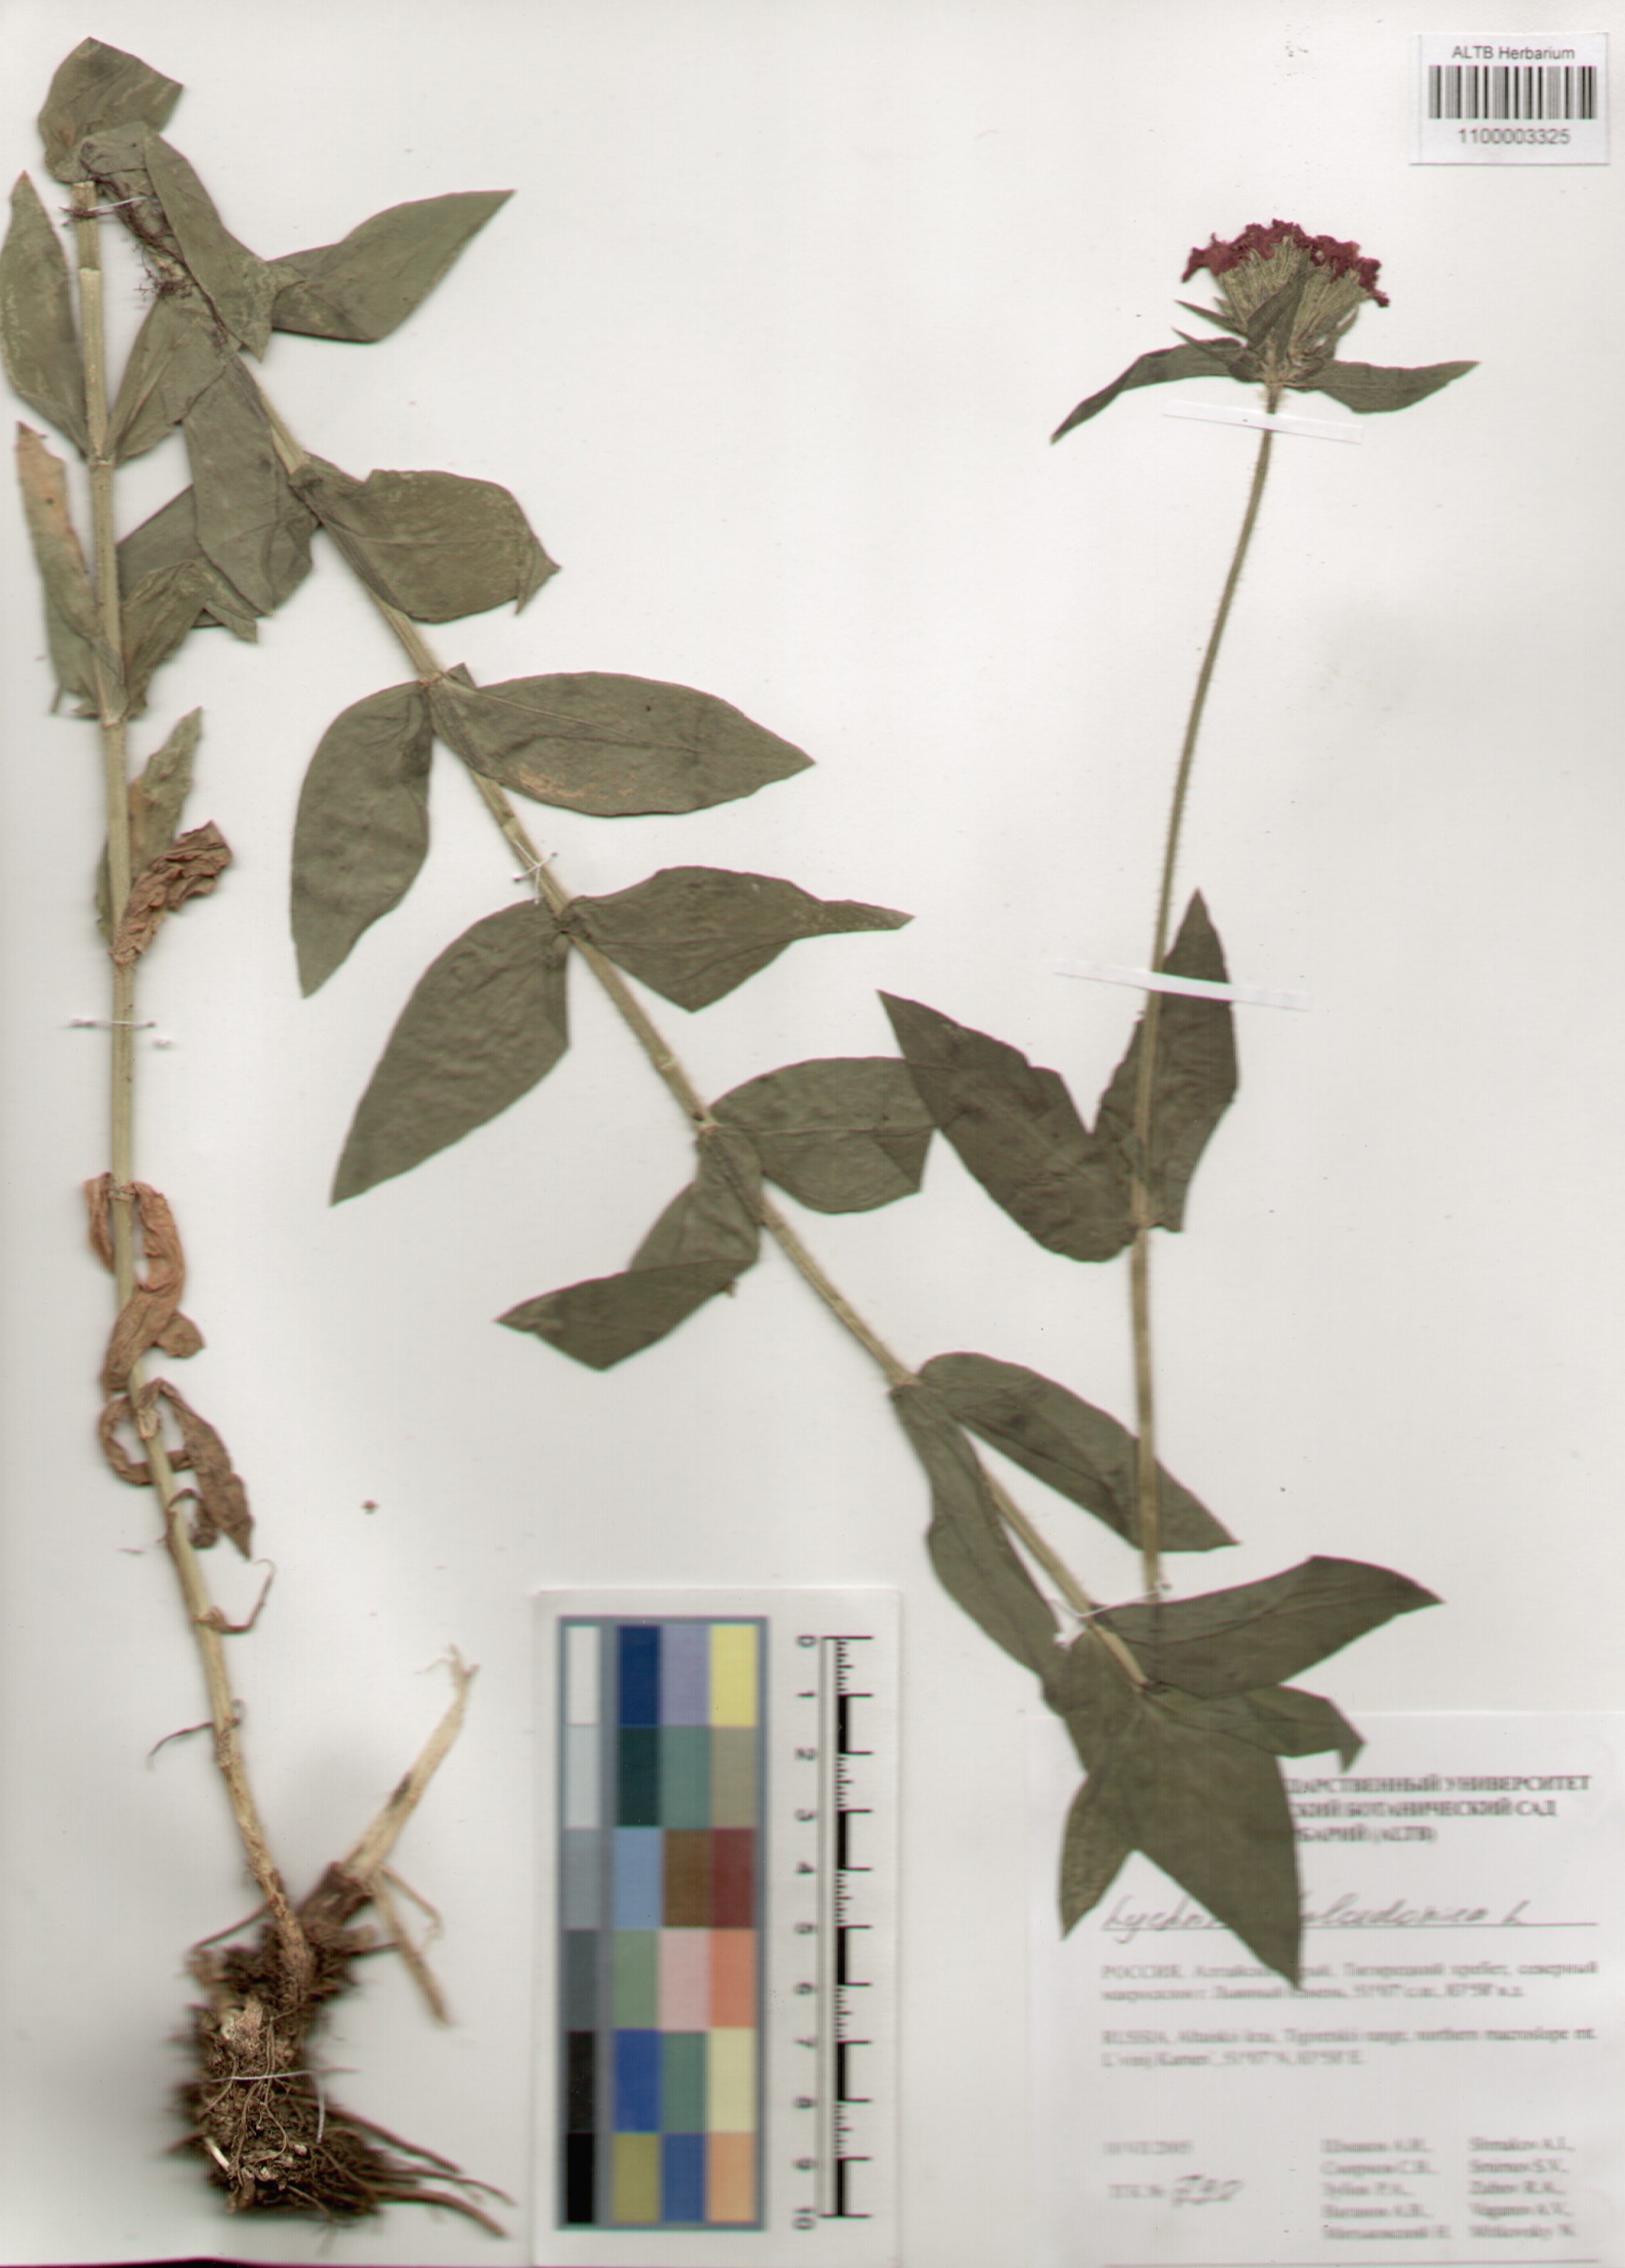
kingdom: Plantae
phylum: Tracheophyta
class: Magnoliopsida
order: Caryophyllales
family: Caryophyllaceae
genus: Silene
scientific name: Silene chalcedonica
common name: Maltese-cross
